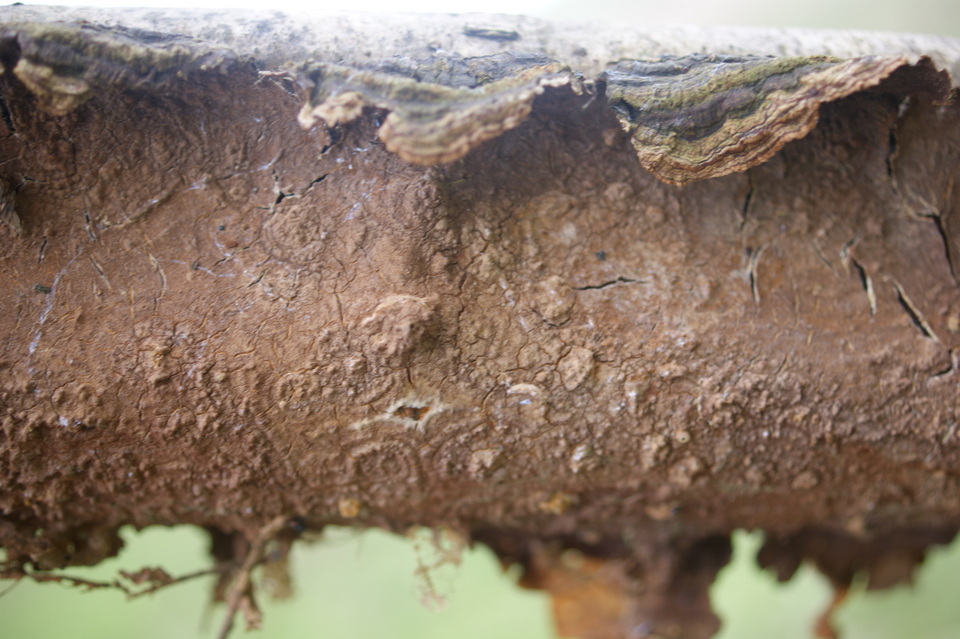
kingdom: Fungi
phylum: Basidiomycota
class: Agaricomycetes
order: Hymenochaetales
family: Hymenochaetaceae
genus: Hydnoporia
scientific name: Hydnoporia tabacina
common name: tobaksbrun ruslædersvamp
